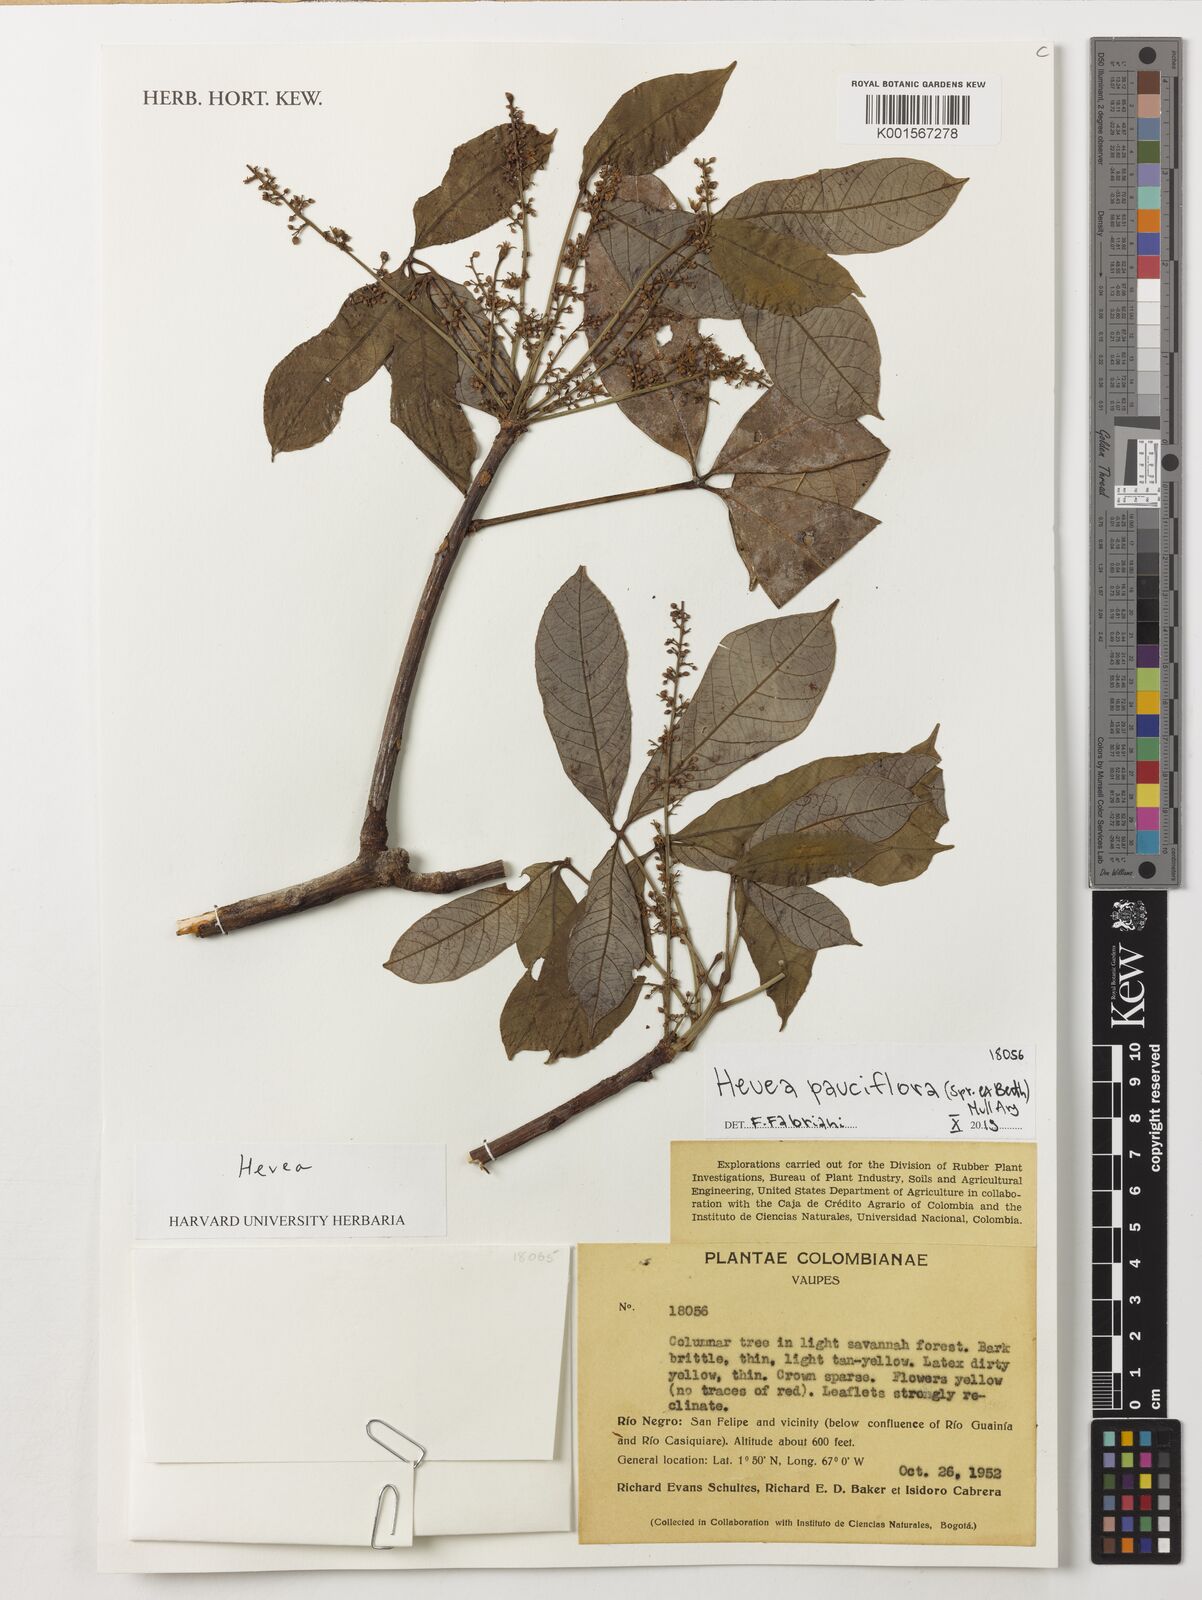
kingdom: Plantae
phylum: Tracheophyta
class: Magnoliopsida
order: Malpighiales
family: Euphorbiaceae
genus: Hevea
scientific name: Hevea pauciflora
